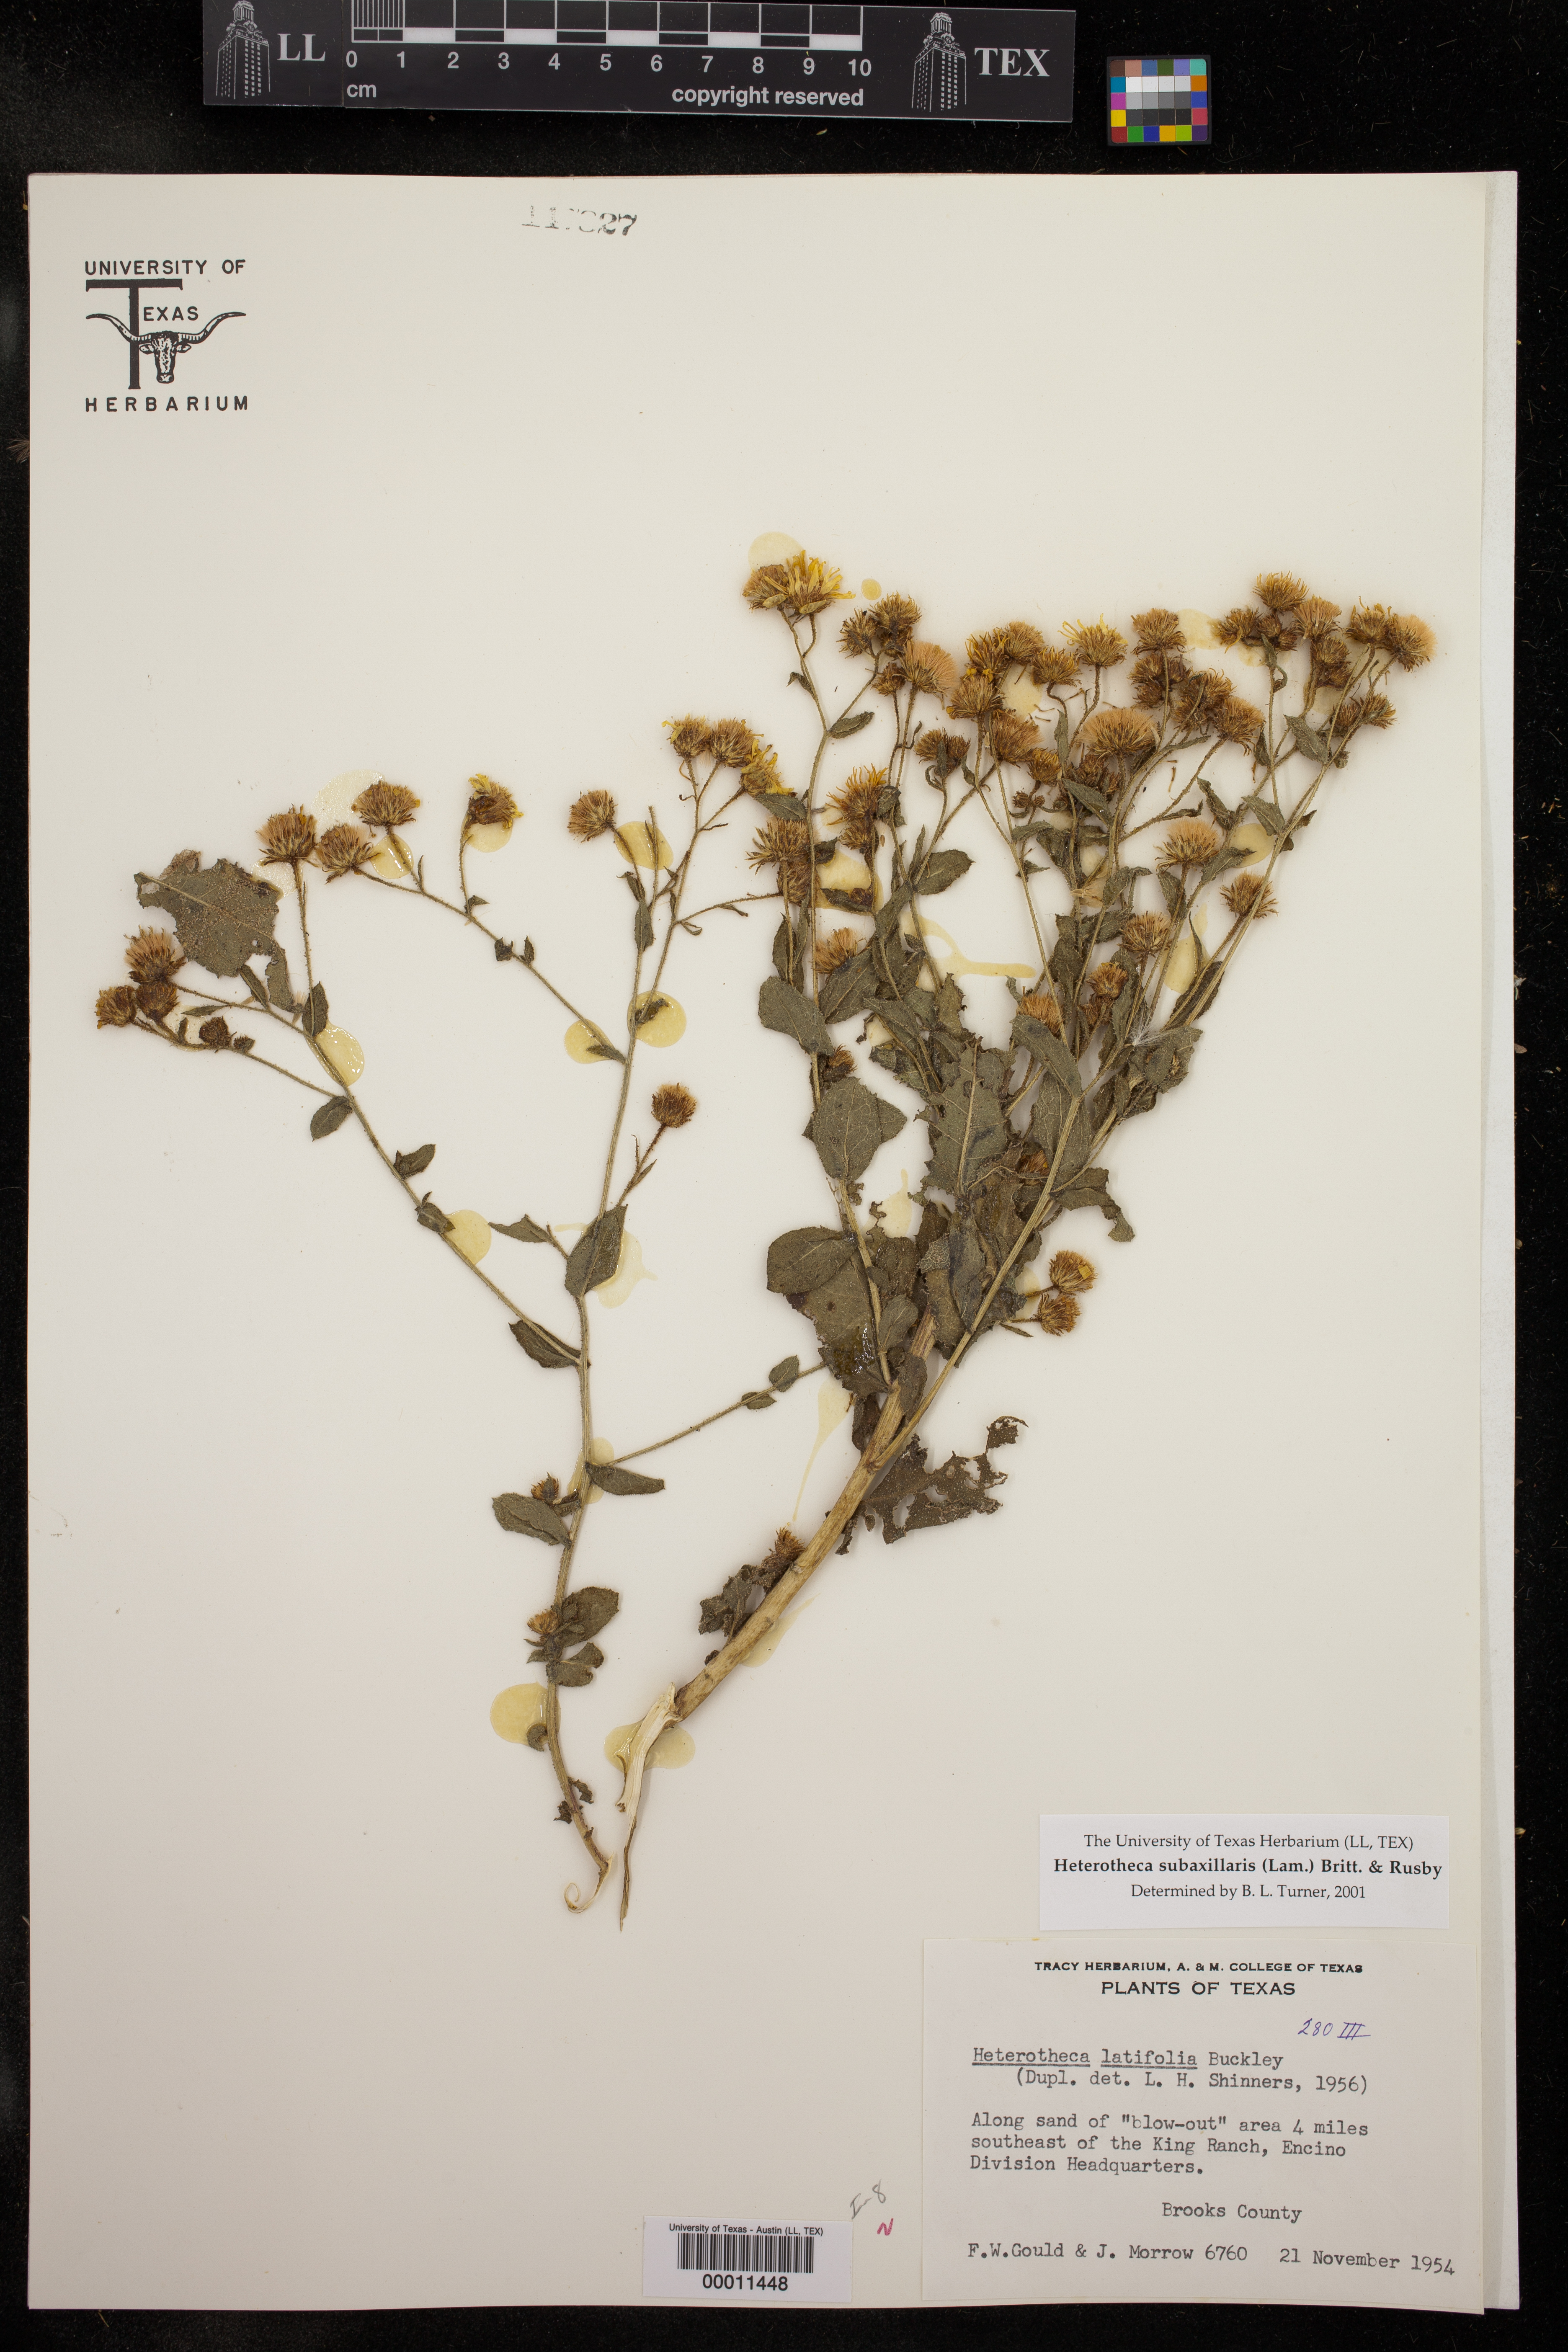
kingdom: Plantae
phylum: Tracheophyta
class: Magnoliopsida
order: Asterales
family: Asteraceae
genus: Heterotheca
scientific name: Heterotheca subaxillaris
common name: Camphorweed
